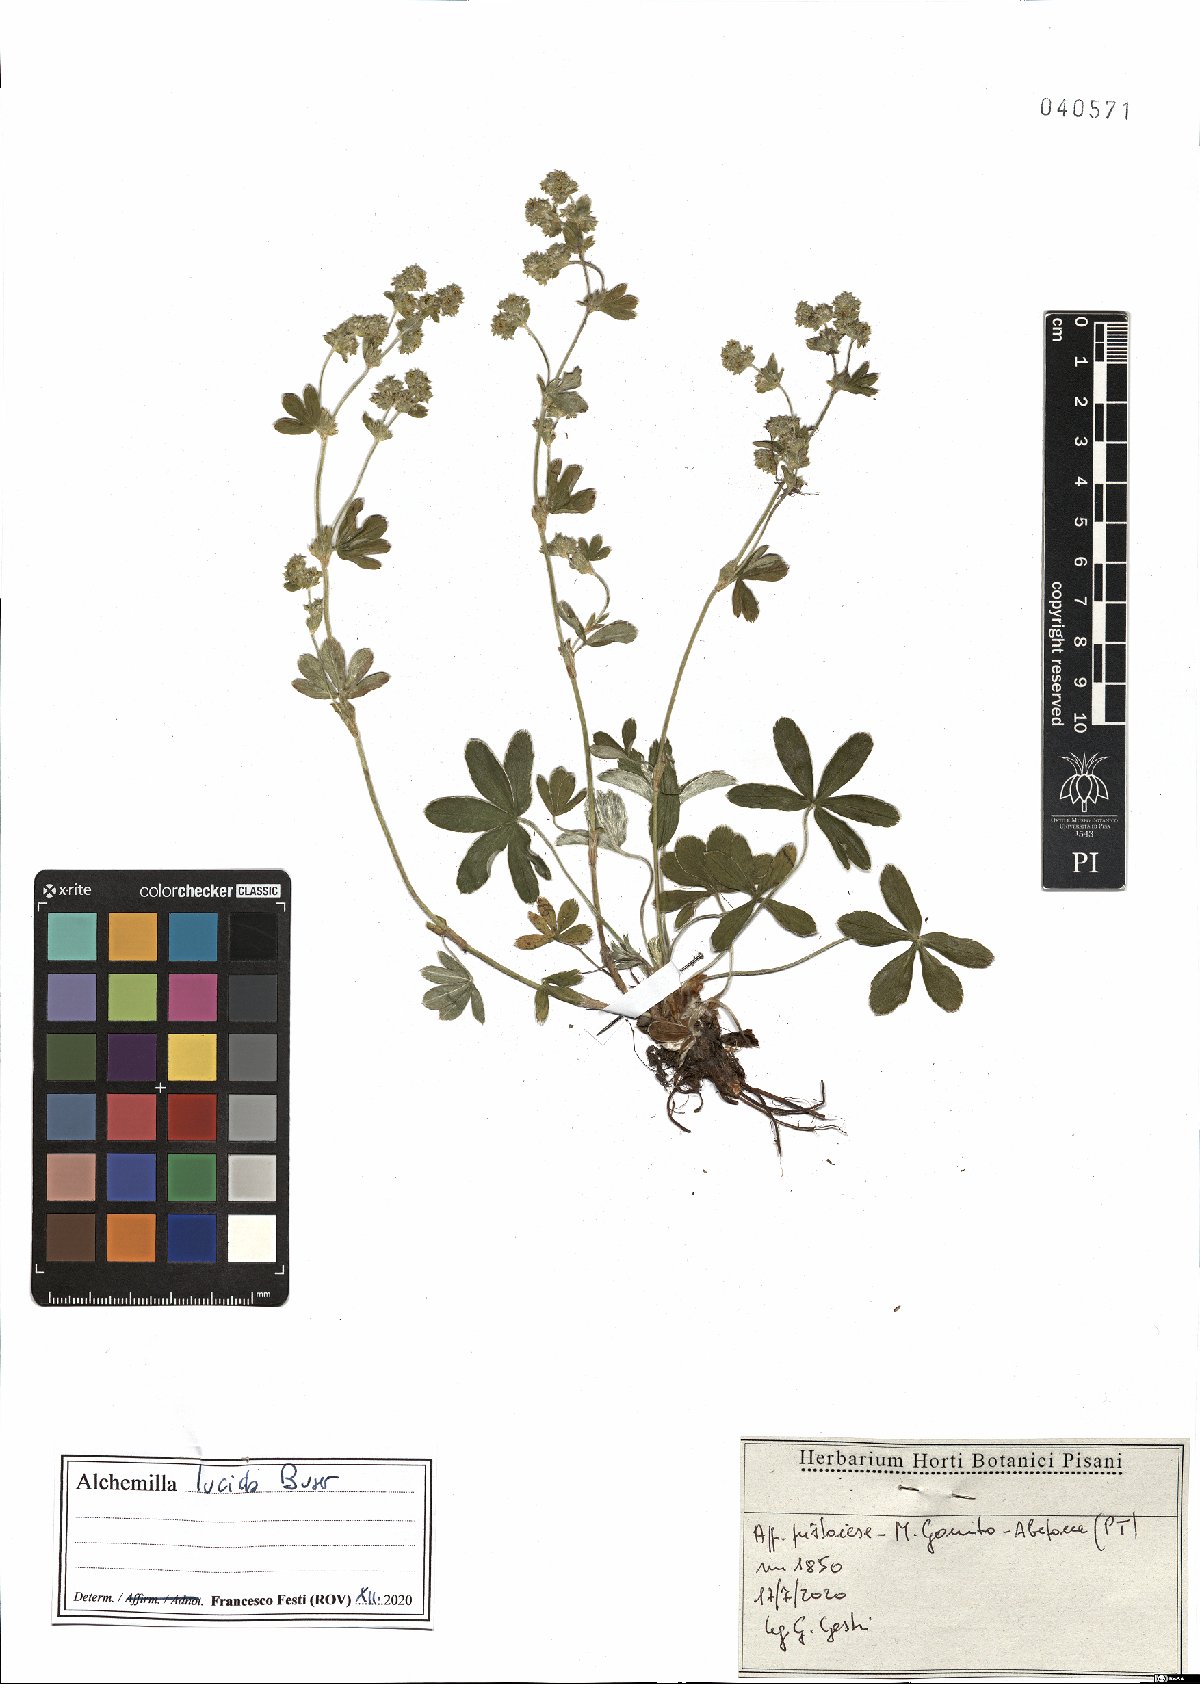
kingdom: Plantae
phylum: Tracheophyta
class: Magnoliopsida
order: Rosales
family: Rosaceae
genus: Alchemilla
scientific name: Alchemilla lucida
